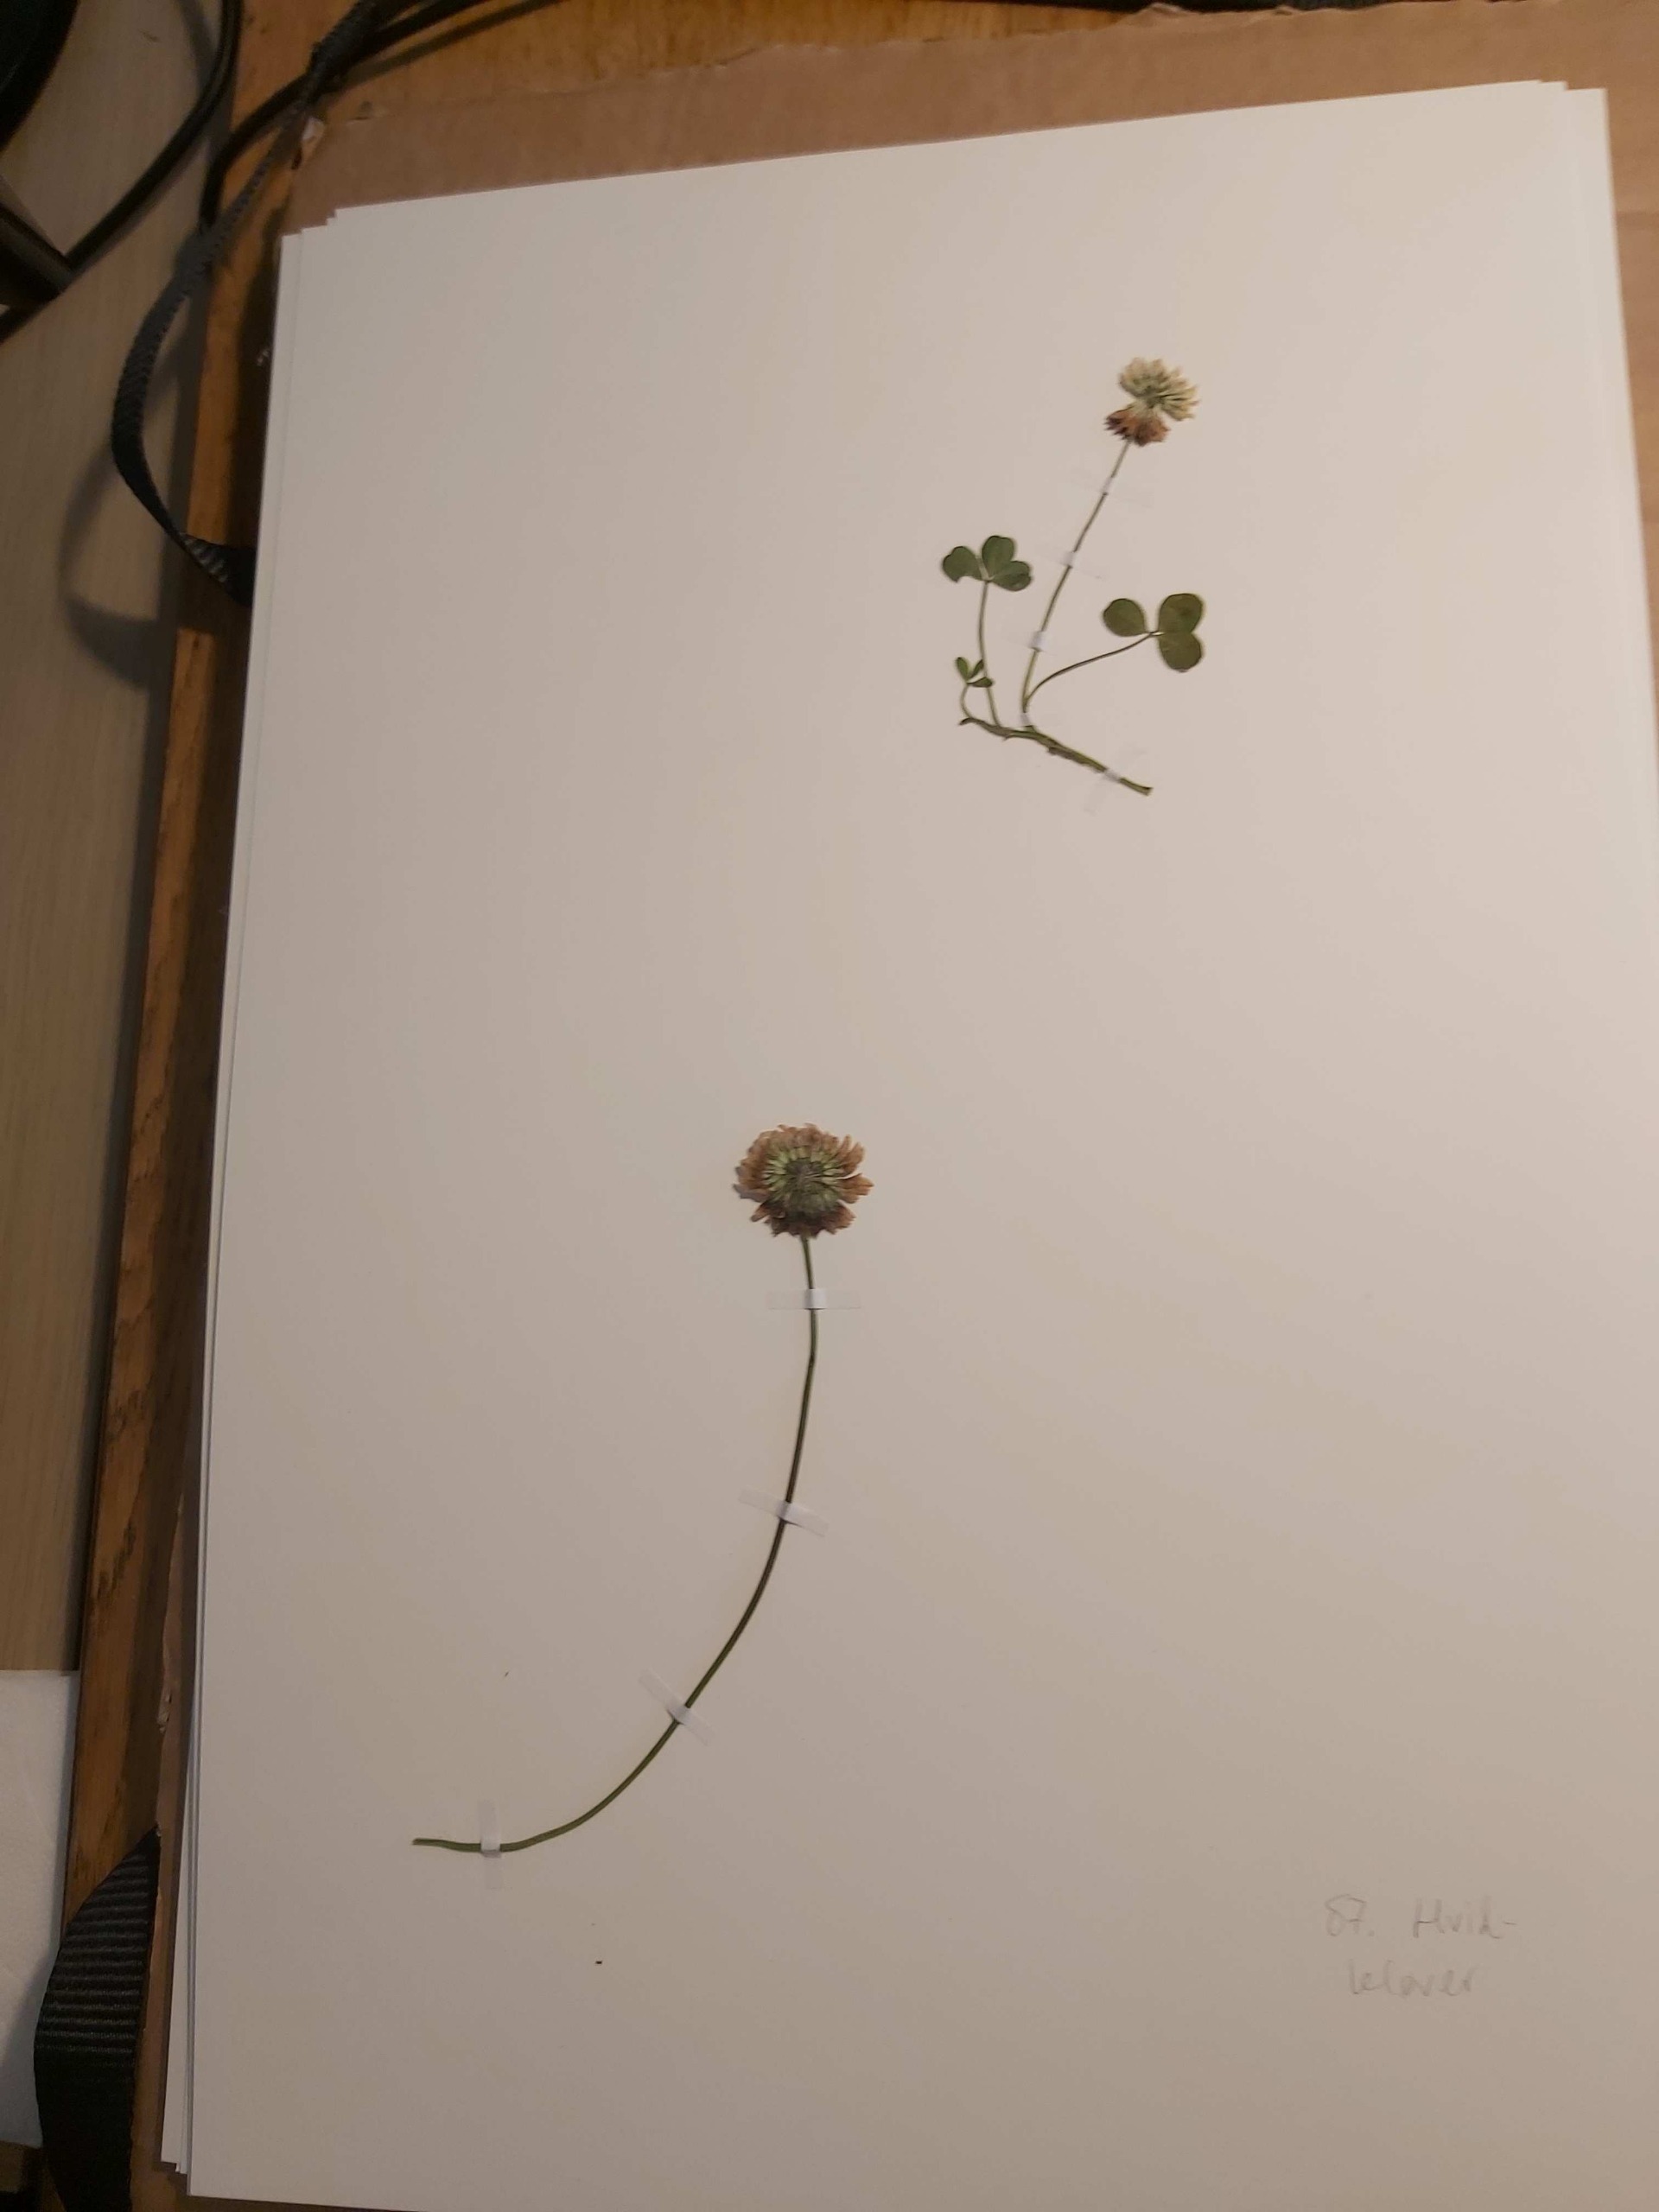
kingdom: Plantae
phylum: Tracheophyta
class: Magnoliopsida
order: Fabales
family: Fabaceae
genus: Trifolium
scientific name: Trifolium repens
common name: Hvid-kløver
